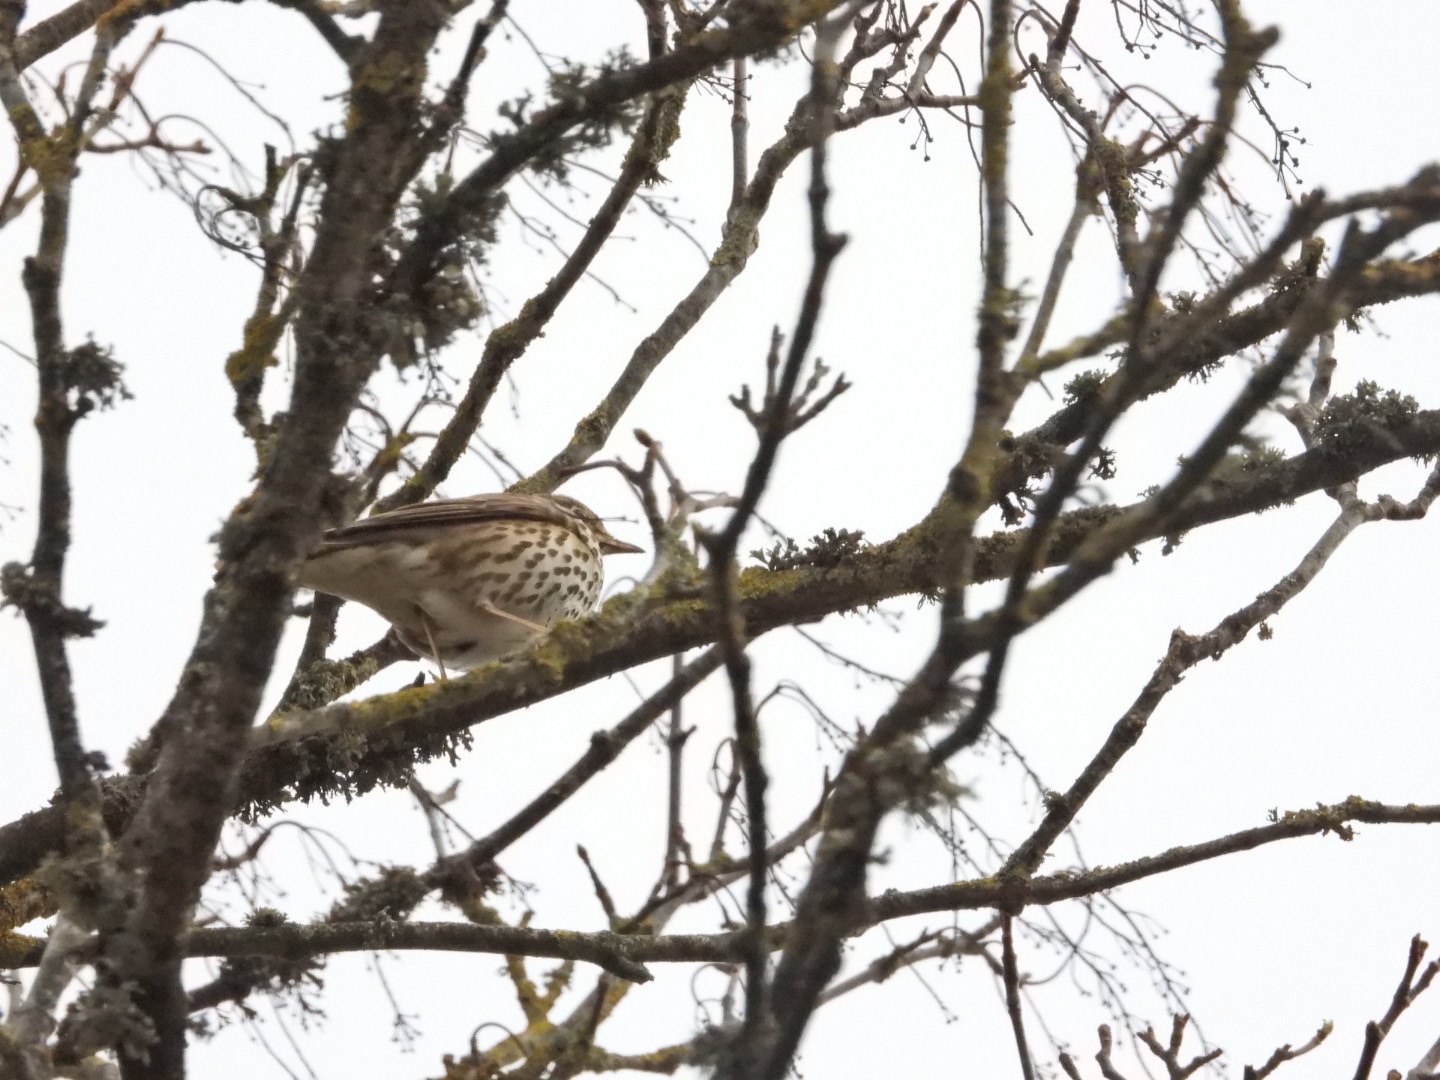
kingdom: Animalia
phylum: Chordata
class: Aves
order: Passeriformes
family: Turdidae
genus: Turdus
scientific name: Turdus philomelos
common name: Sangdrossel
